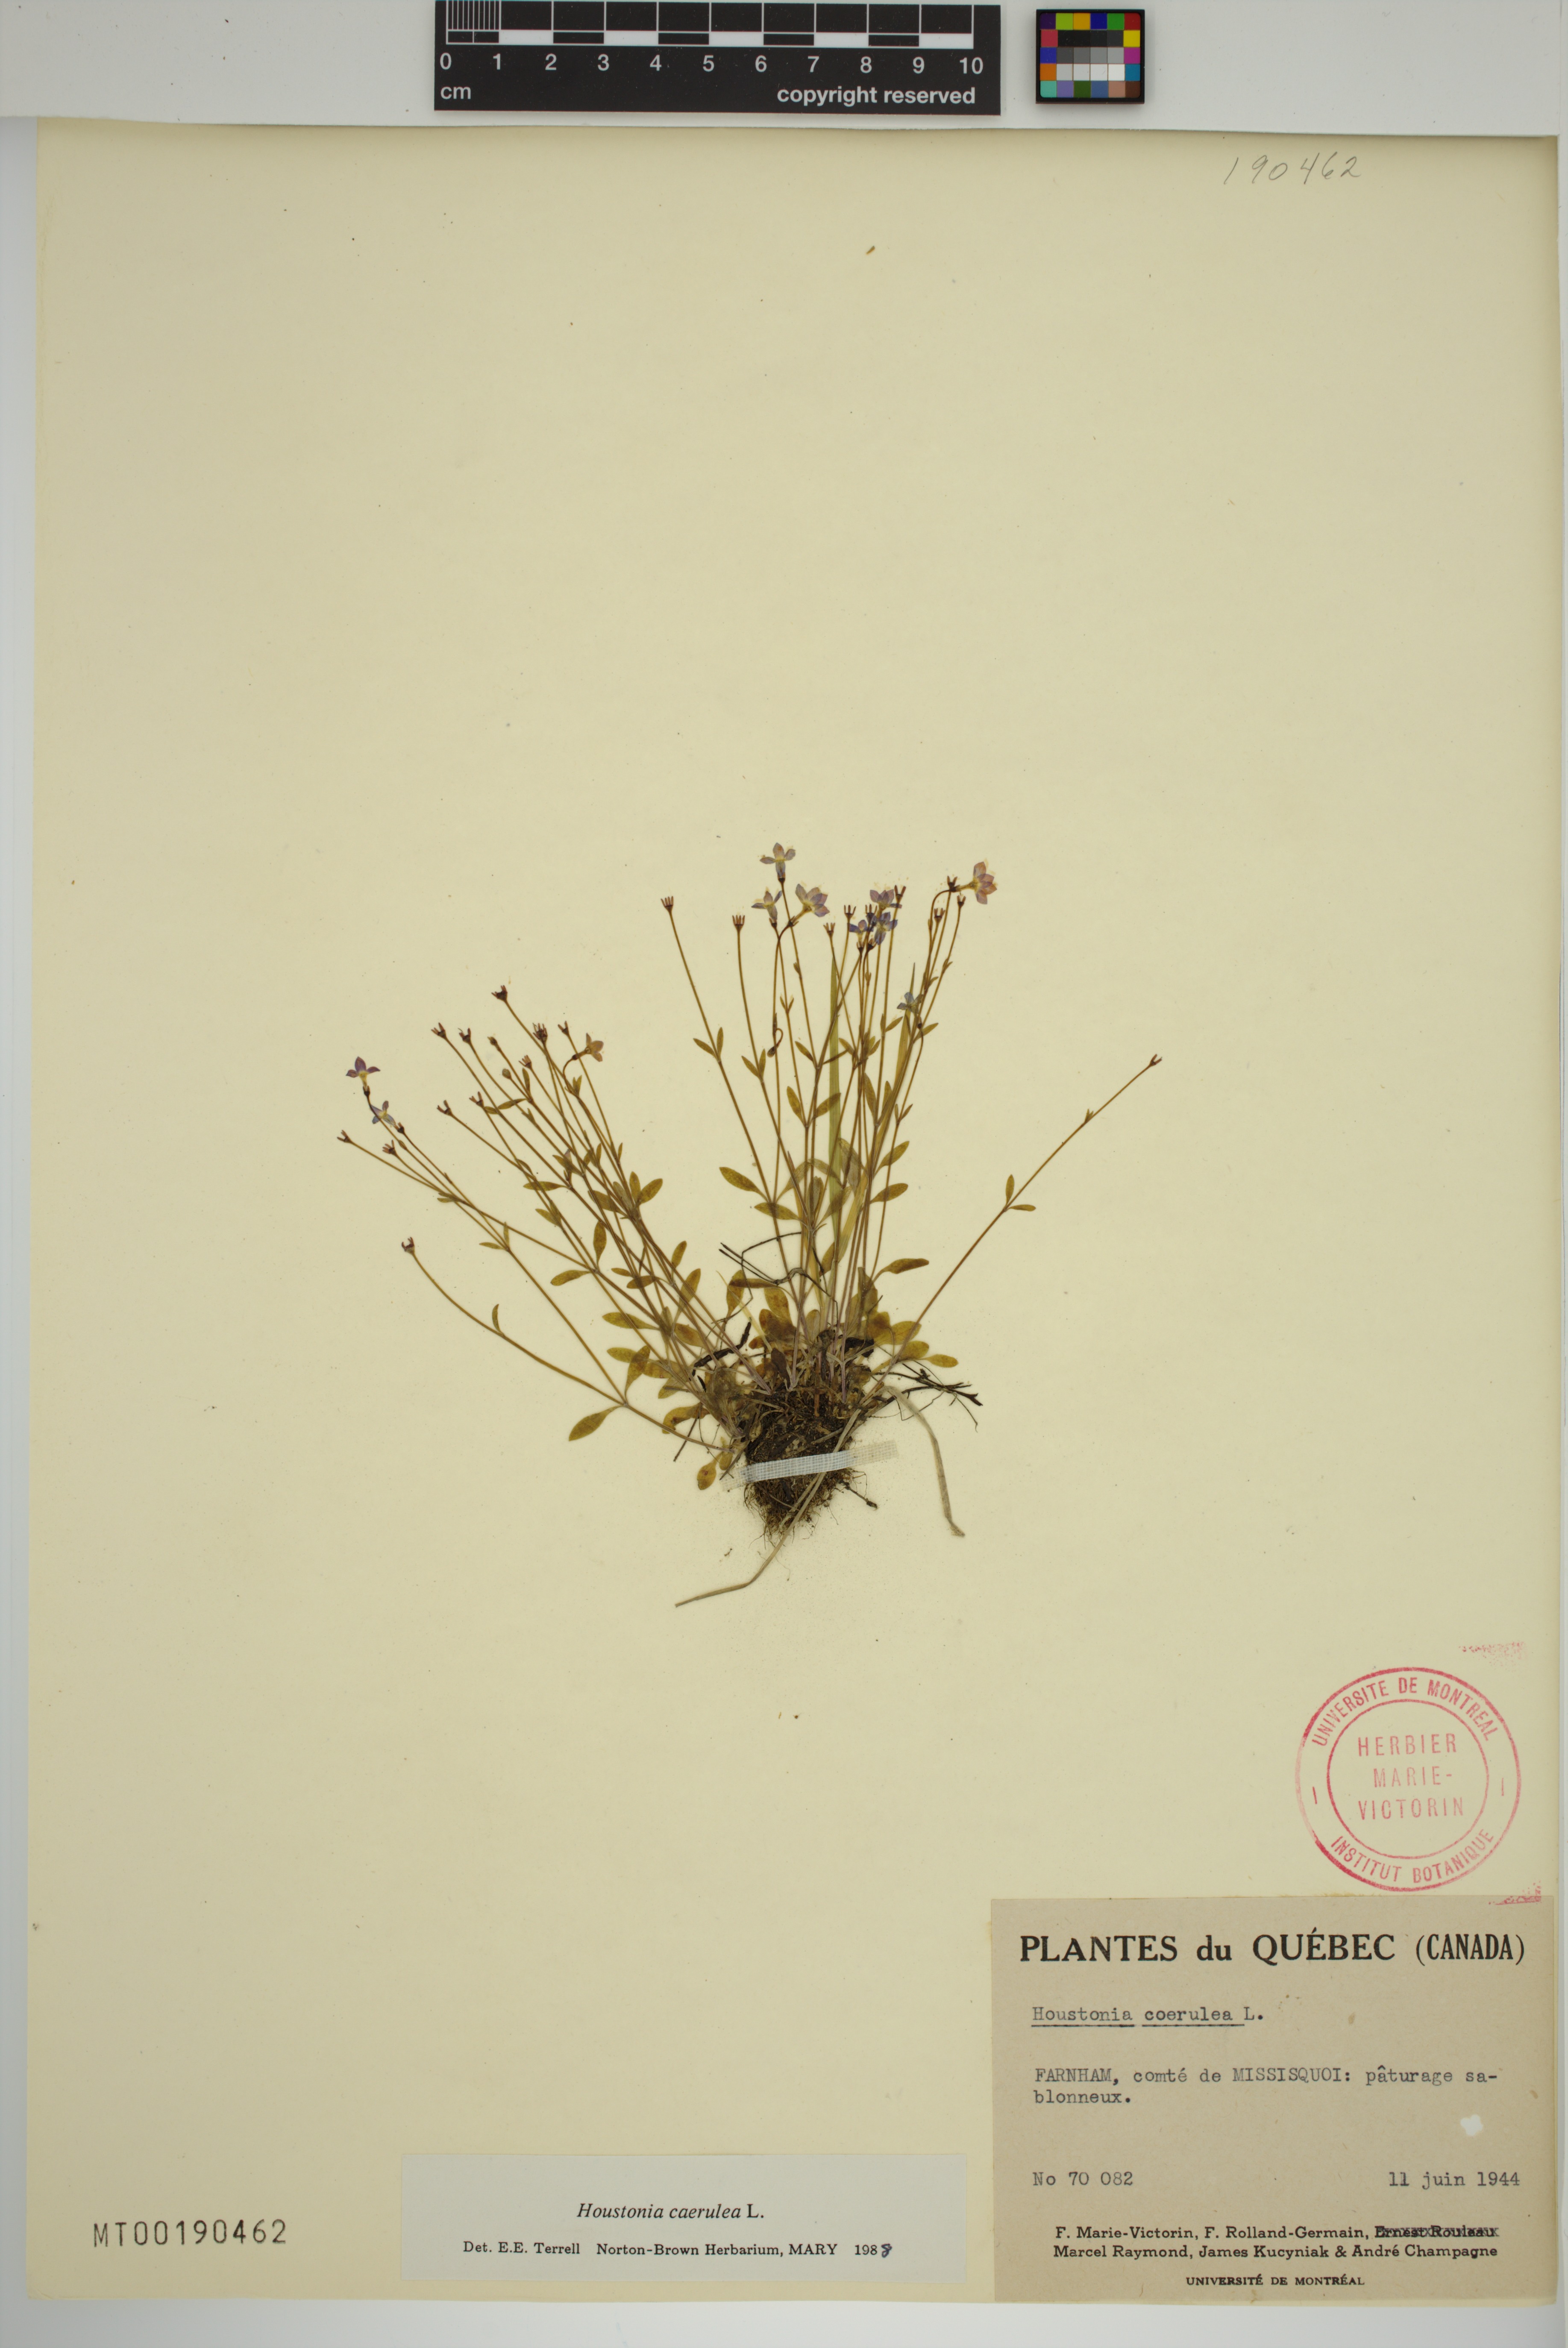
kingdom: Plantae
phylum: Tracheophyta
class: Magnoliopsida
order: Gentianales
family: Rubiaceae
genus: Houstonia
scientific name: Houstonia caerulea
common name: Bluets
